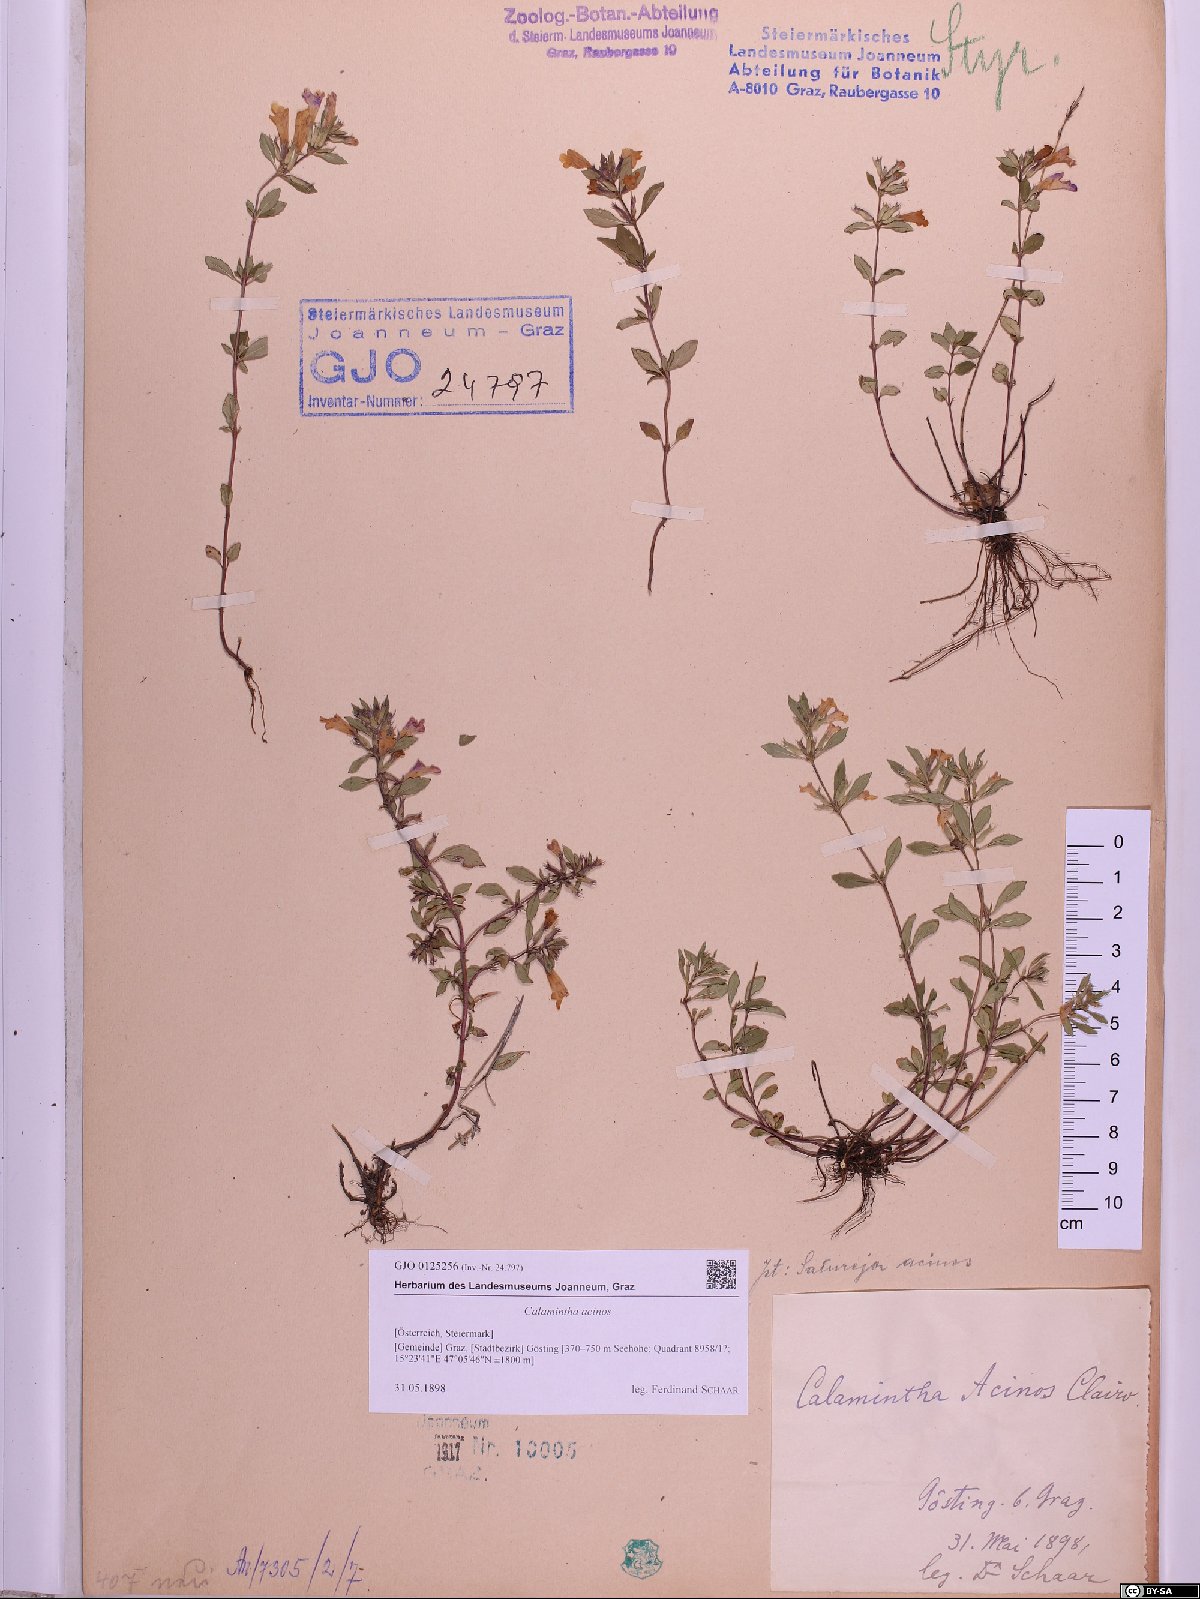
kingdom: Plantae
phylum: Tracheophyta
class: Magnoliopsida
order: Lamiales
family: Lamiaceae
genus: Clinopodium
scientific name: Clinopodium acinos
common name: Basil thyme
